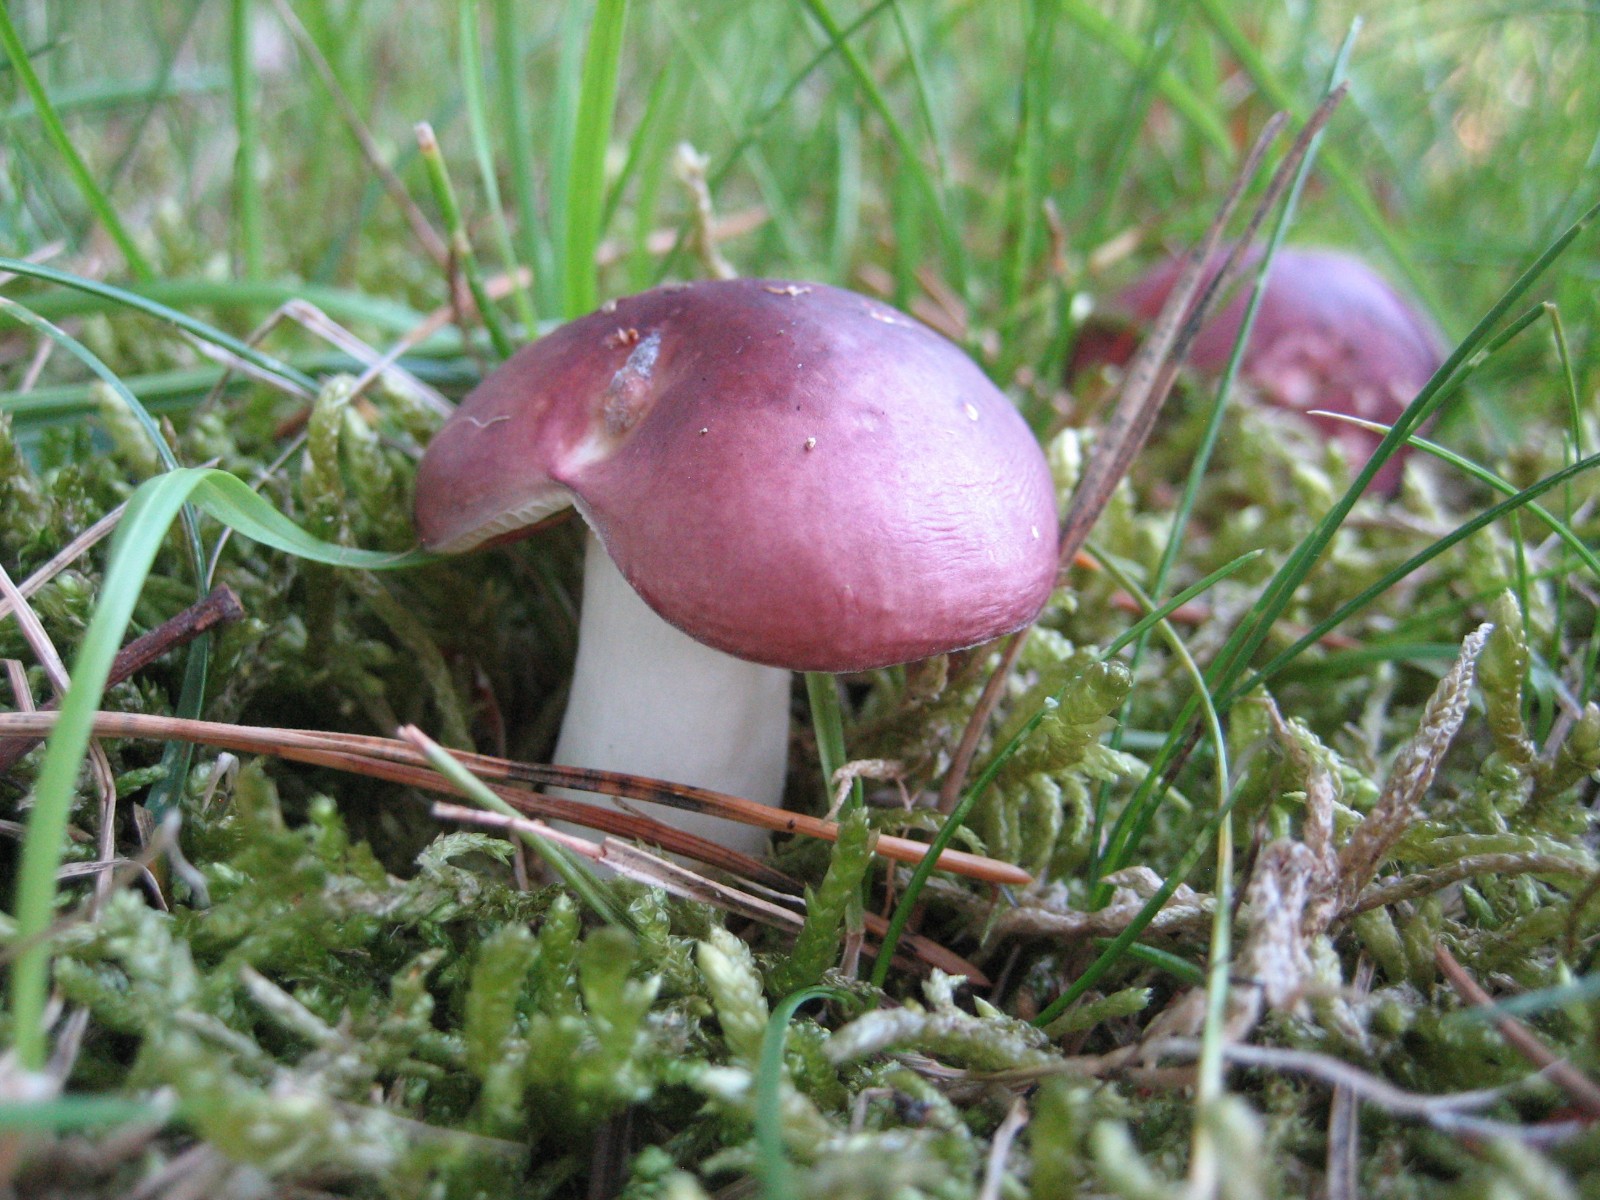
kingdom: Fungi
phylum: Basidiomycota
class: Agaricomycetes
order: Russulales
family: Russulaceae
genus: Russula
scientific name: Russula cessans
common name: fyrre-skørhat
